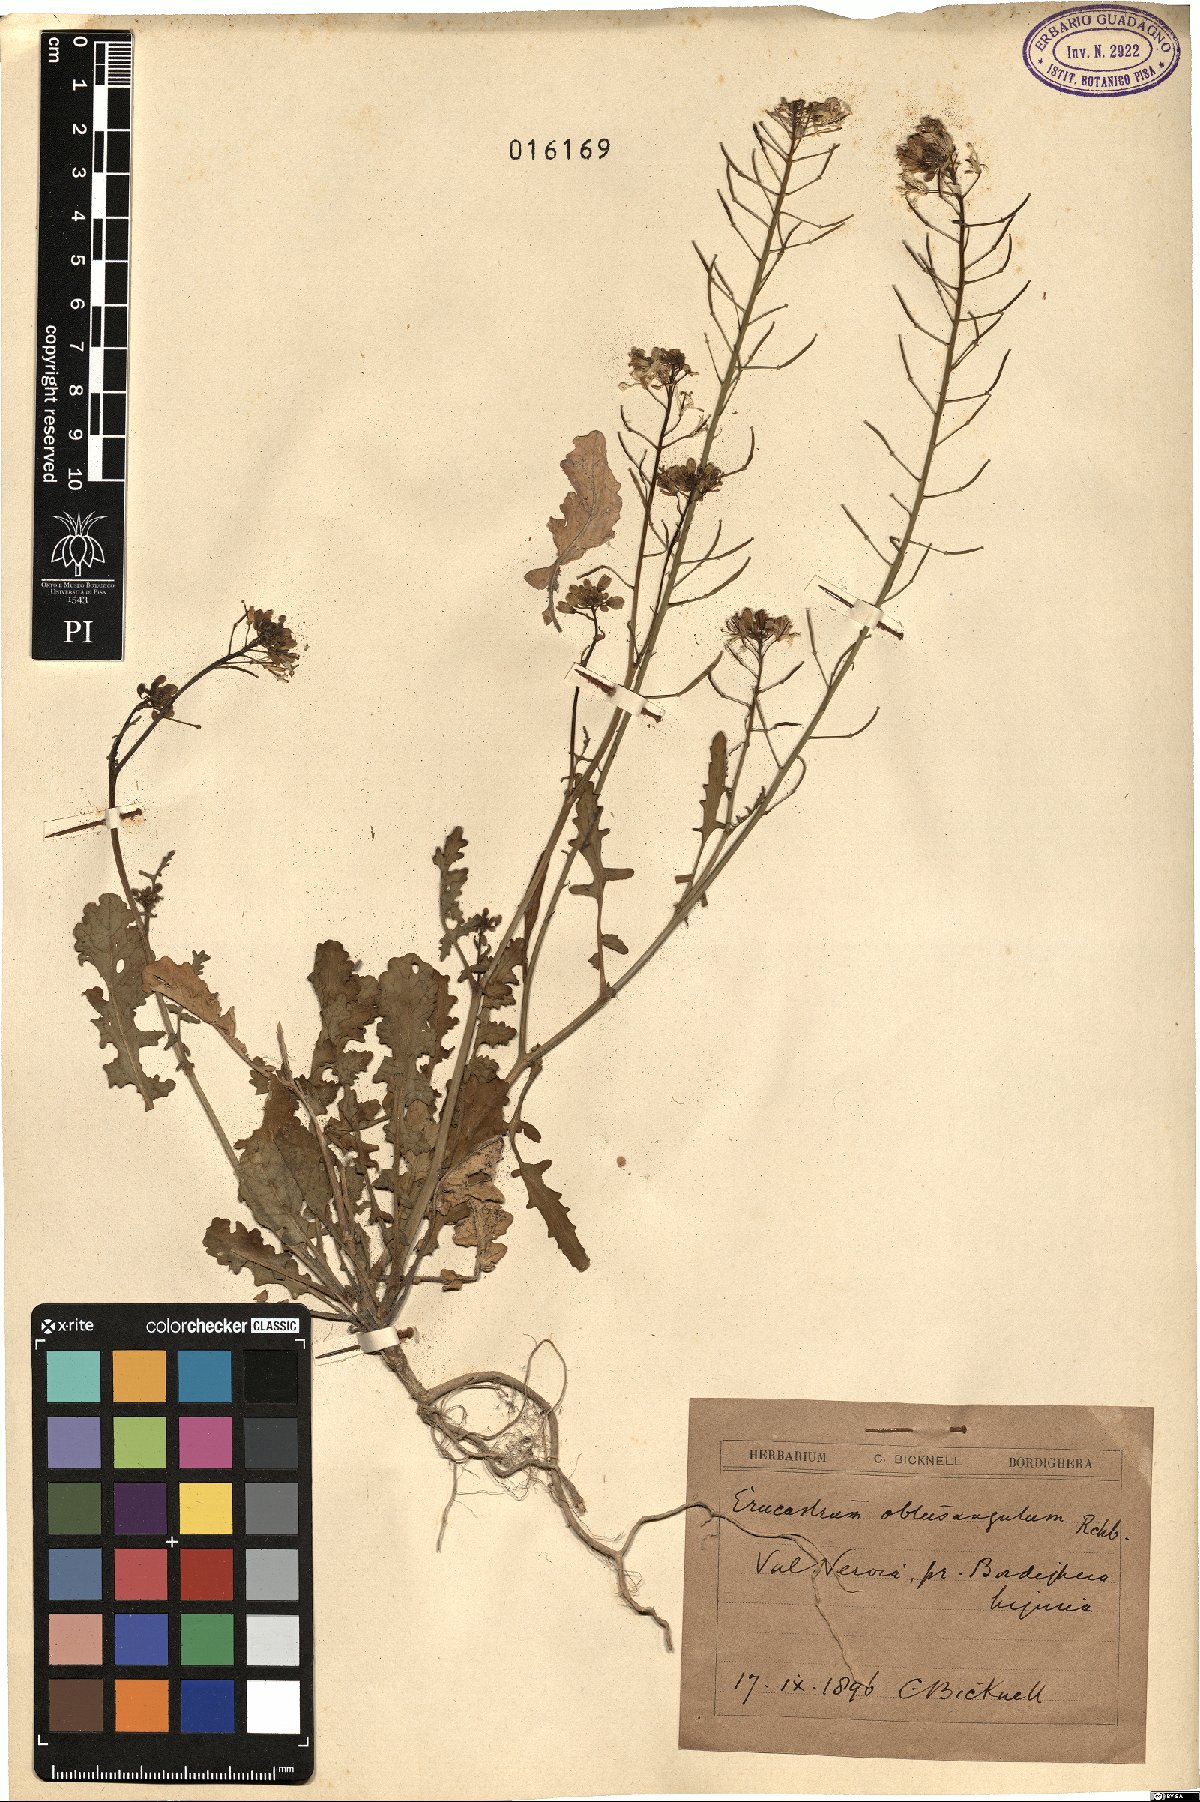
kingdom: Plantae
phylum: Tracheophyta
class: Magnoliopsida
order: Brassicales
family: Brassicaceae
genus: Erucastrum
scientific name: Erucastrum nasturtiifolium
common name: Watercress-leaf rocket
